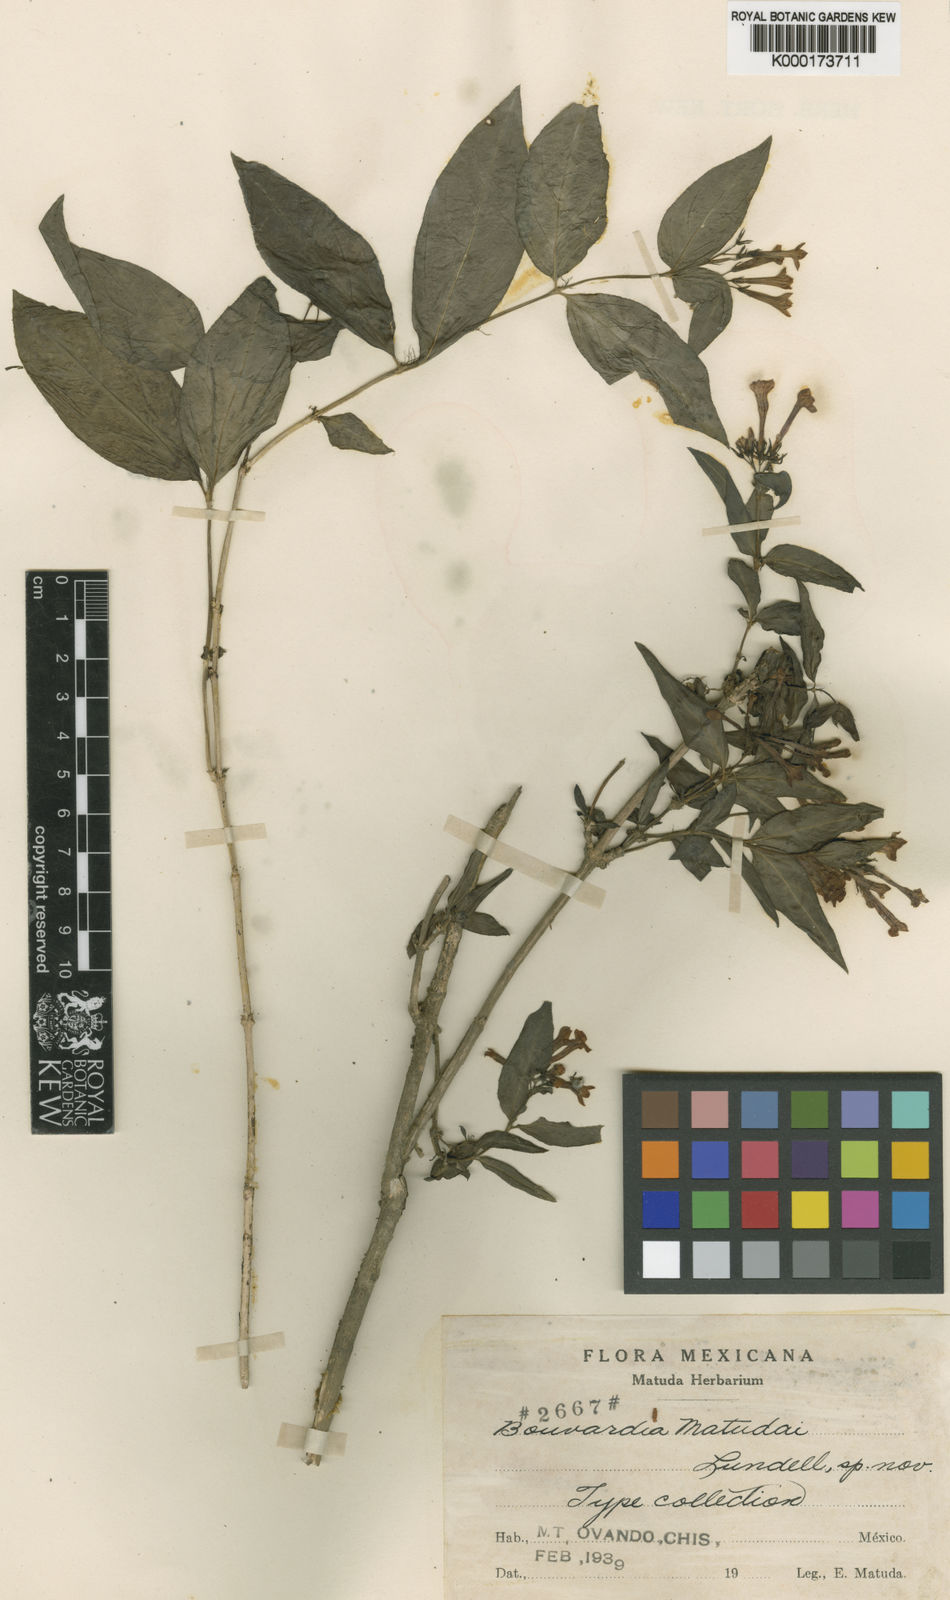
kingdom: Plantae
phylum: Tracheophyta
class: Magnoliopsida
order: Gentianales
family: Rubiaceae
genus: Bouvardia
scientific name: Bouvardia dictyoneura
